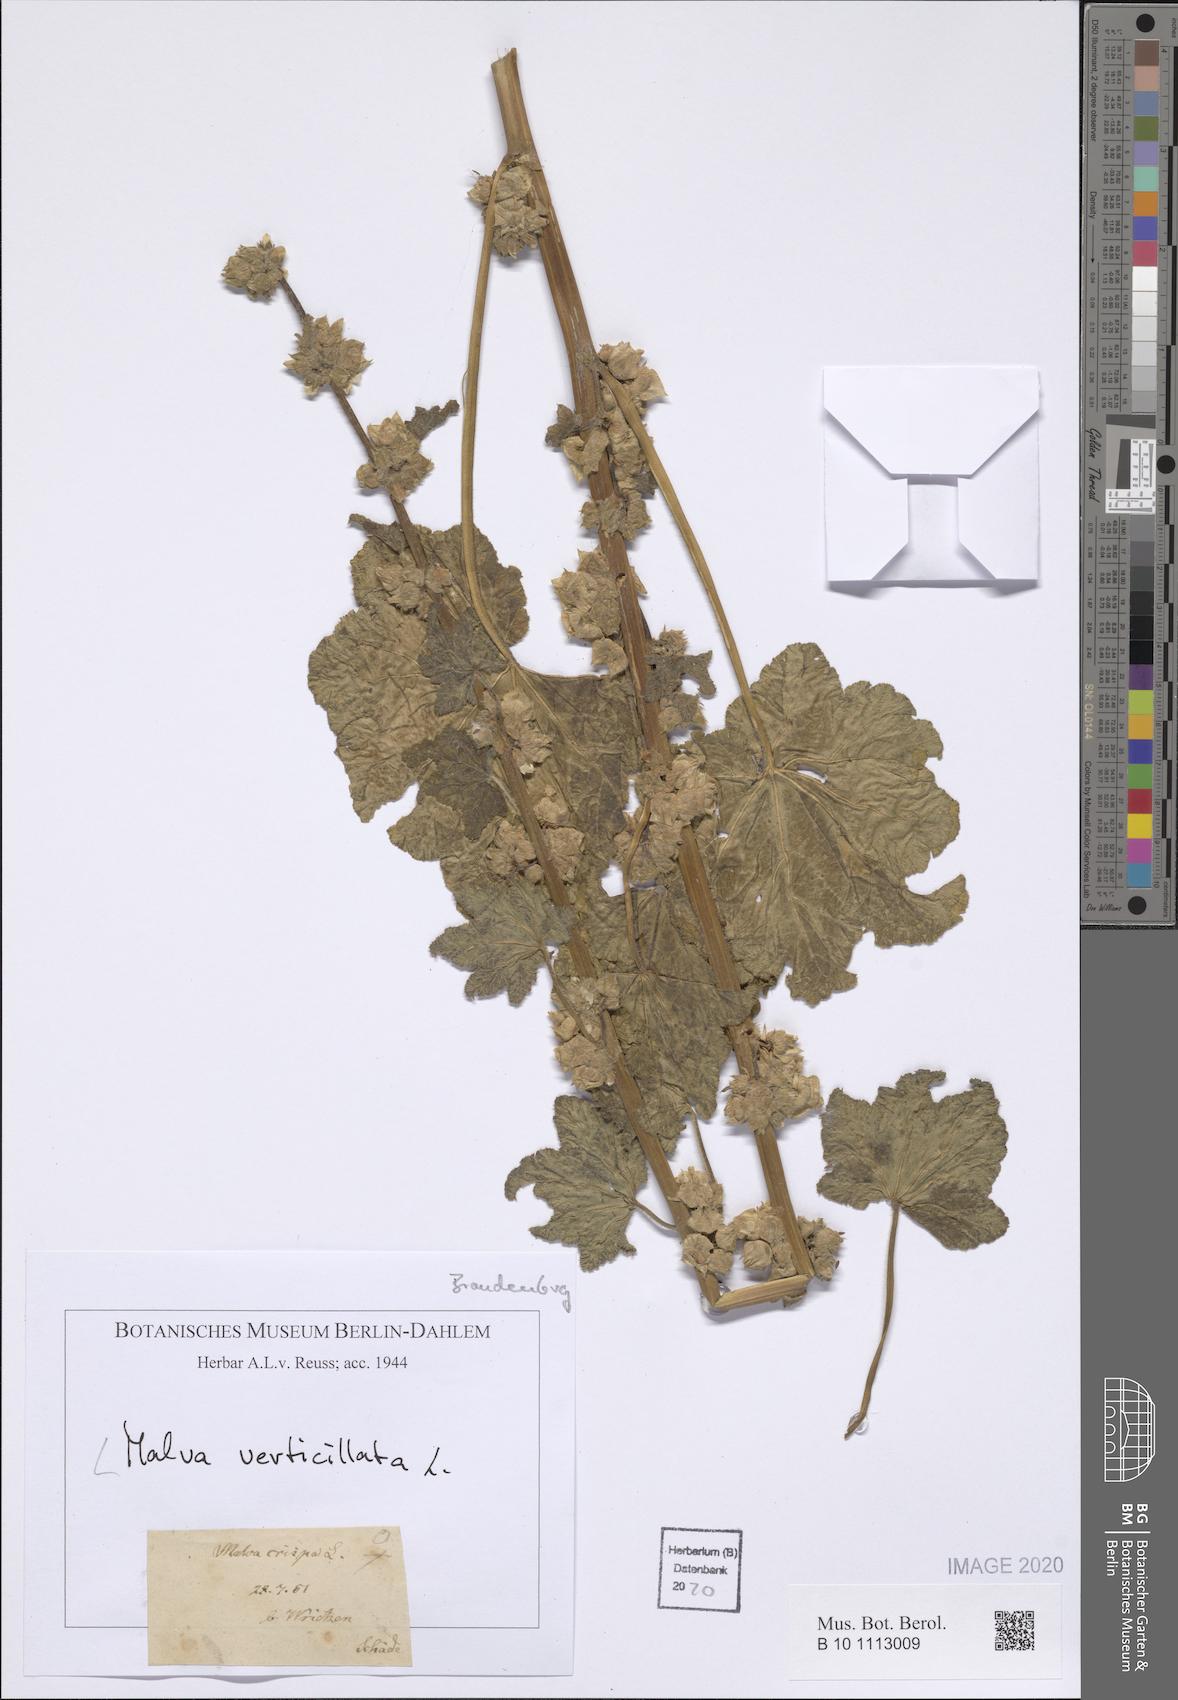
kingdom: Plantae
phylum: Tracheophyta
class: Magnoliopsida
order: Malvales
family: Malvaceae
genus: Malva
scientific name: Malva verticillata
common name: Chinese mallow
